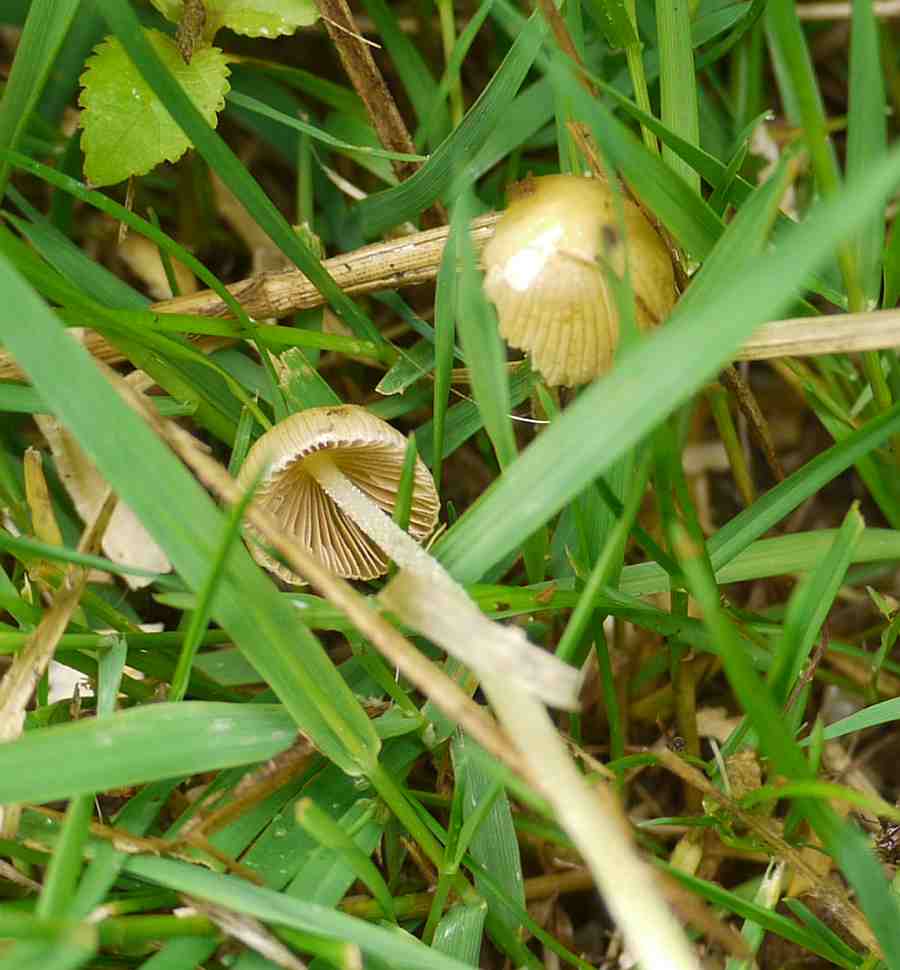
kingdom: Fungi
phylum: Basidiomycota
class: Agaricomycetes
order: Agaricales
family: Bolbitiaceae
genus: Bolbitius
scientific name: Bolbitius titubans
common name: almindelig gulhat
